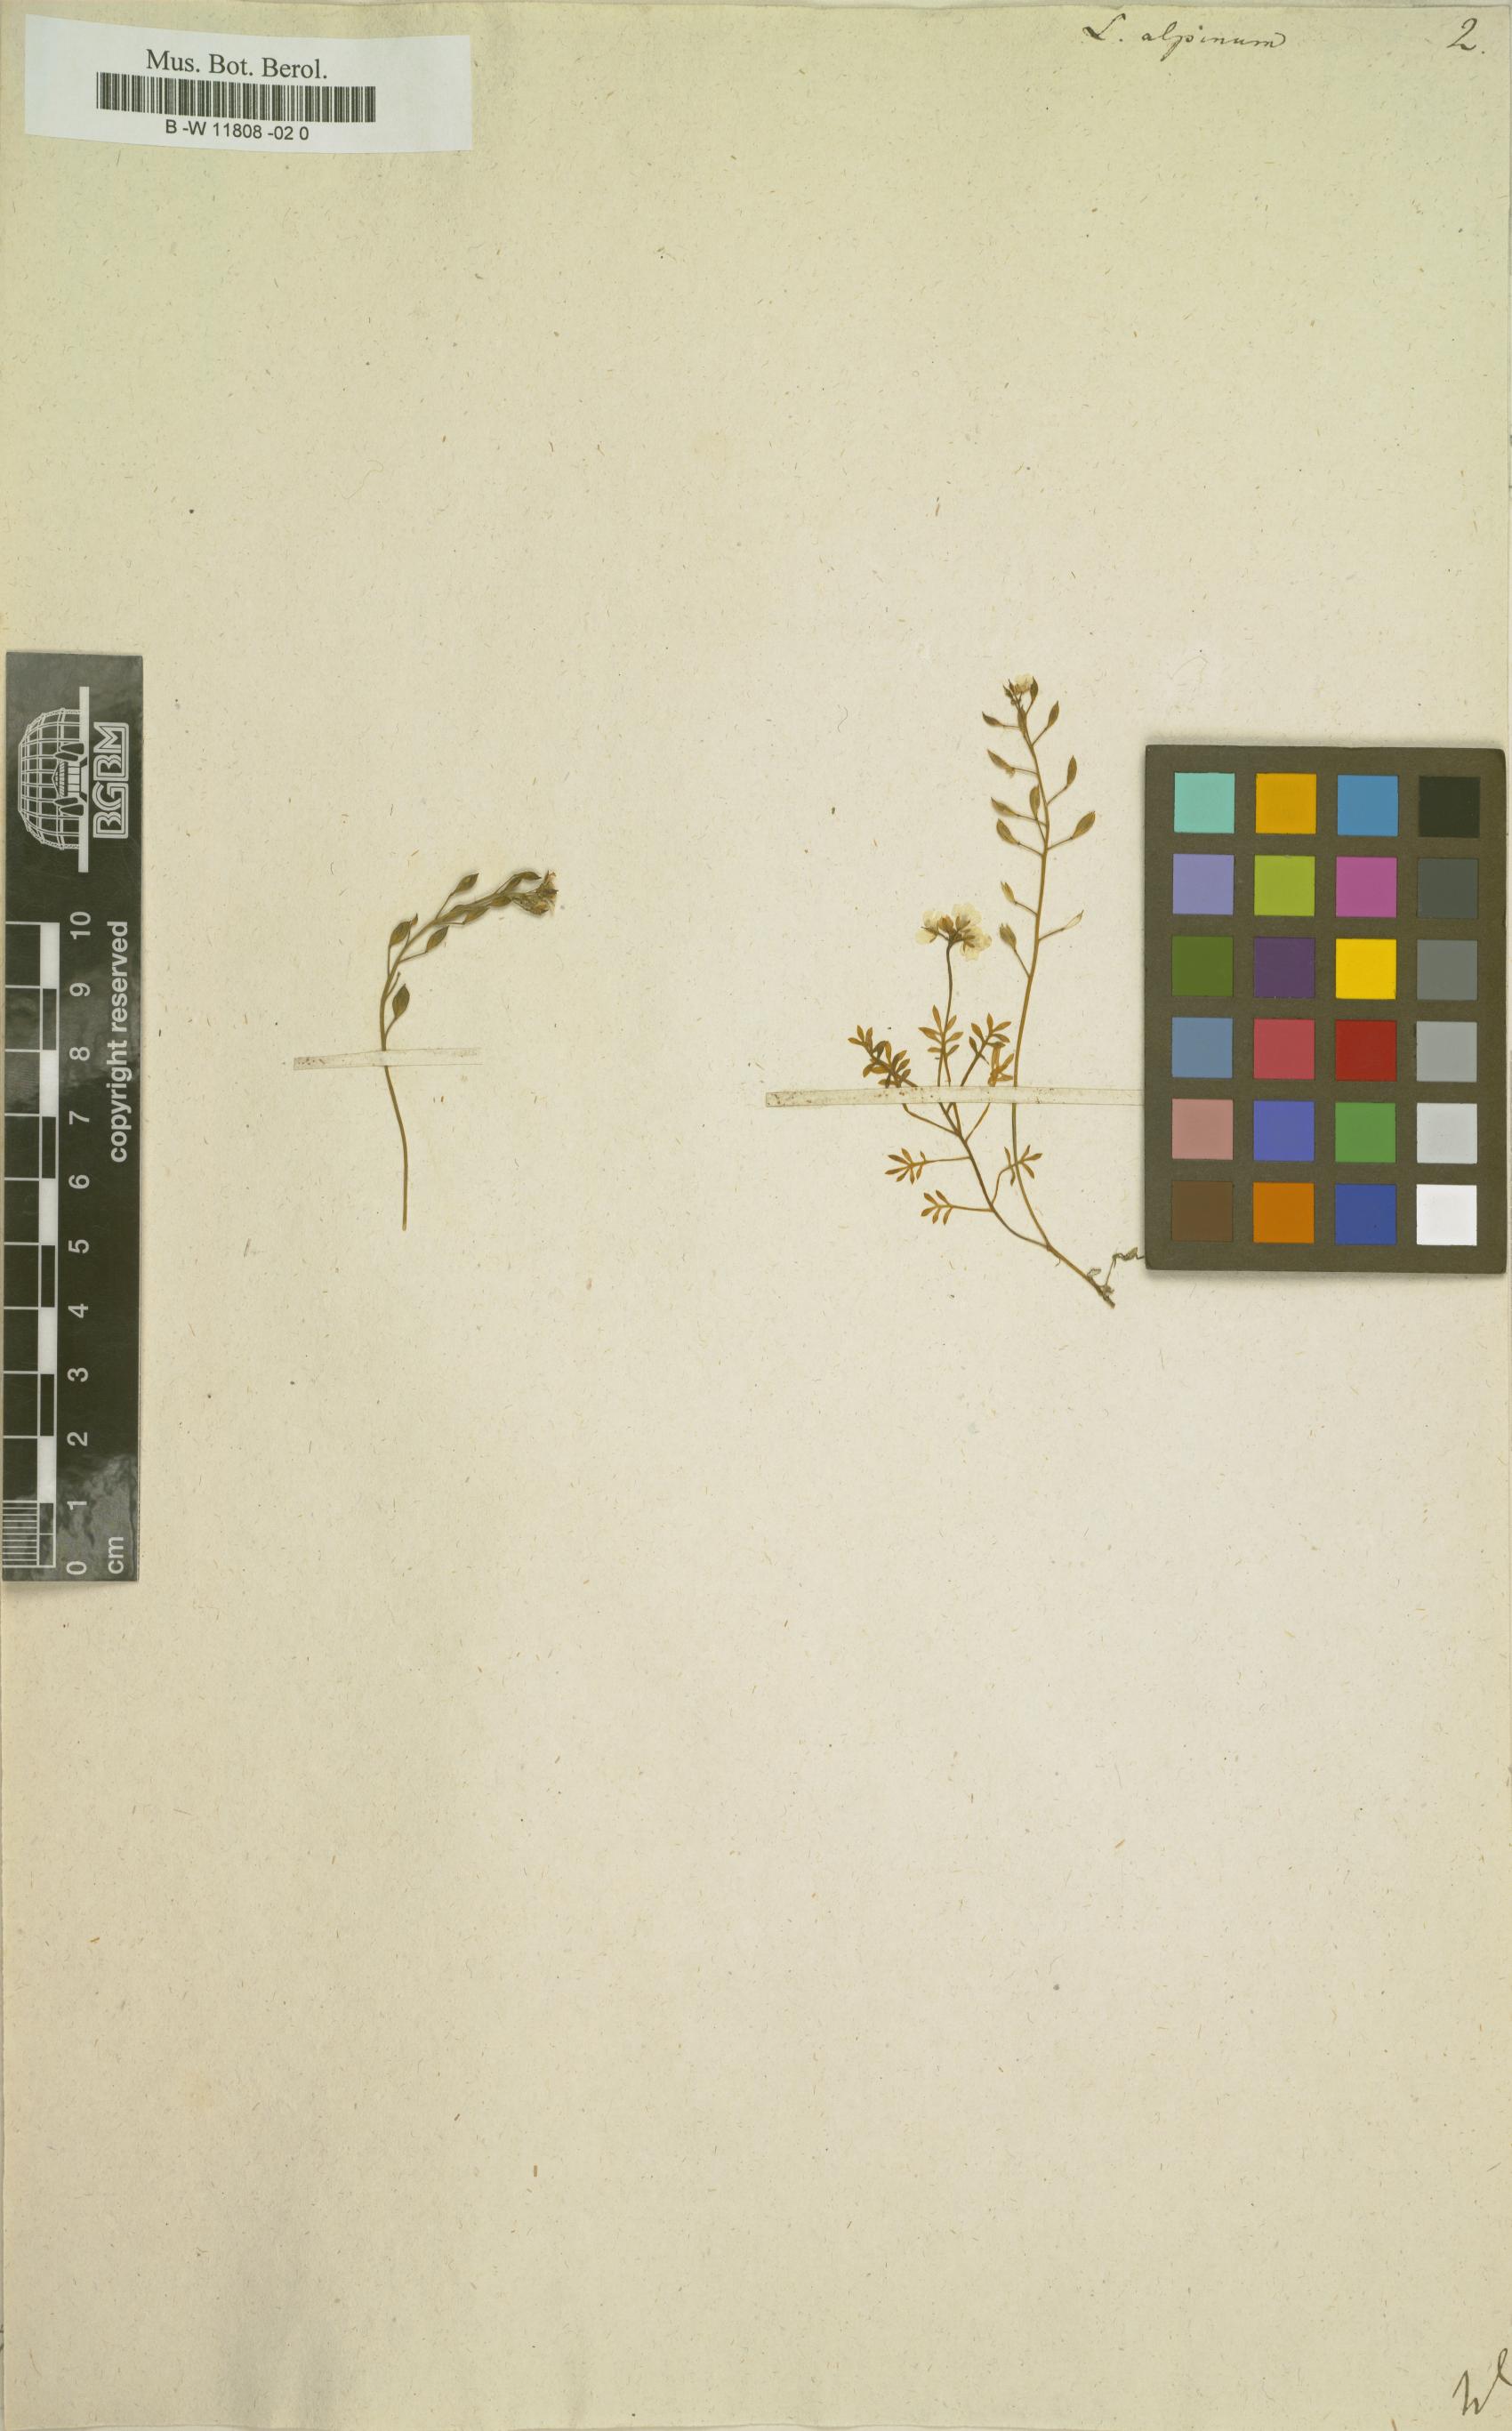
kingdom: Plantae
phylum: Tracheophyta
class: Magnoliopsida
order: Brassicales
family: Brassicaceae
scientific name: Brassicaceae
